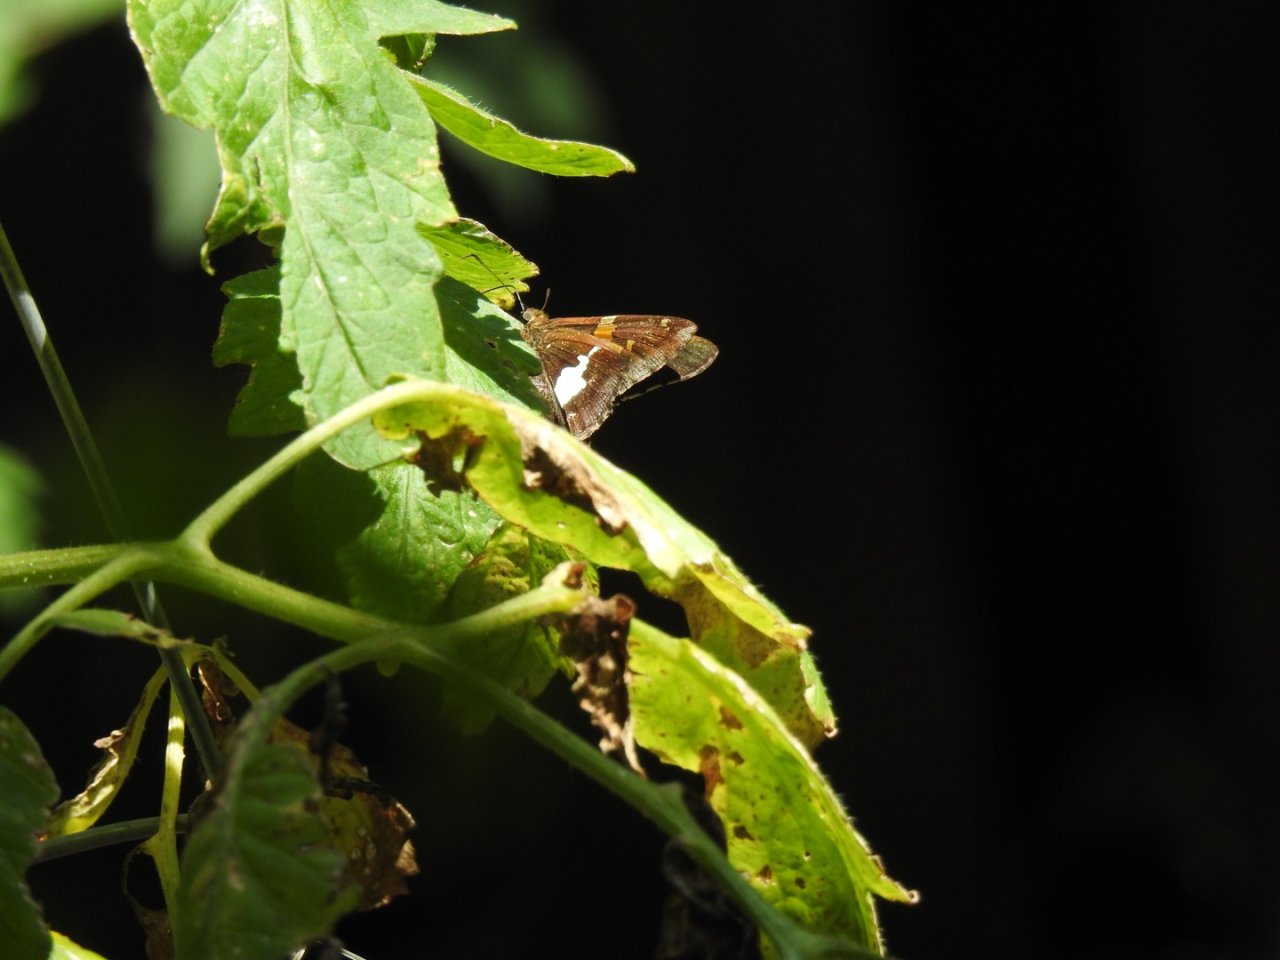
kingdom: Animalia
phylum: Arthropoda
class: Insecta
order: Lepidoptera
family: Hesperiidae
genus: Epargyreus
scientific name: Epargyreus clarus
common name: Silver-spotted Skipper
